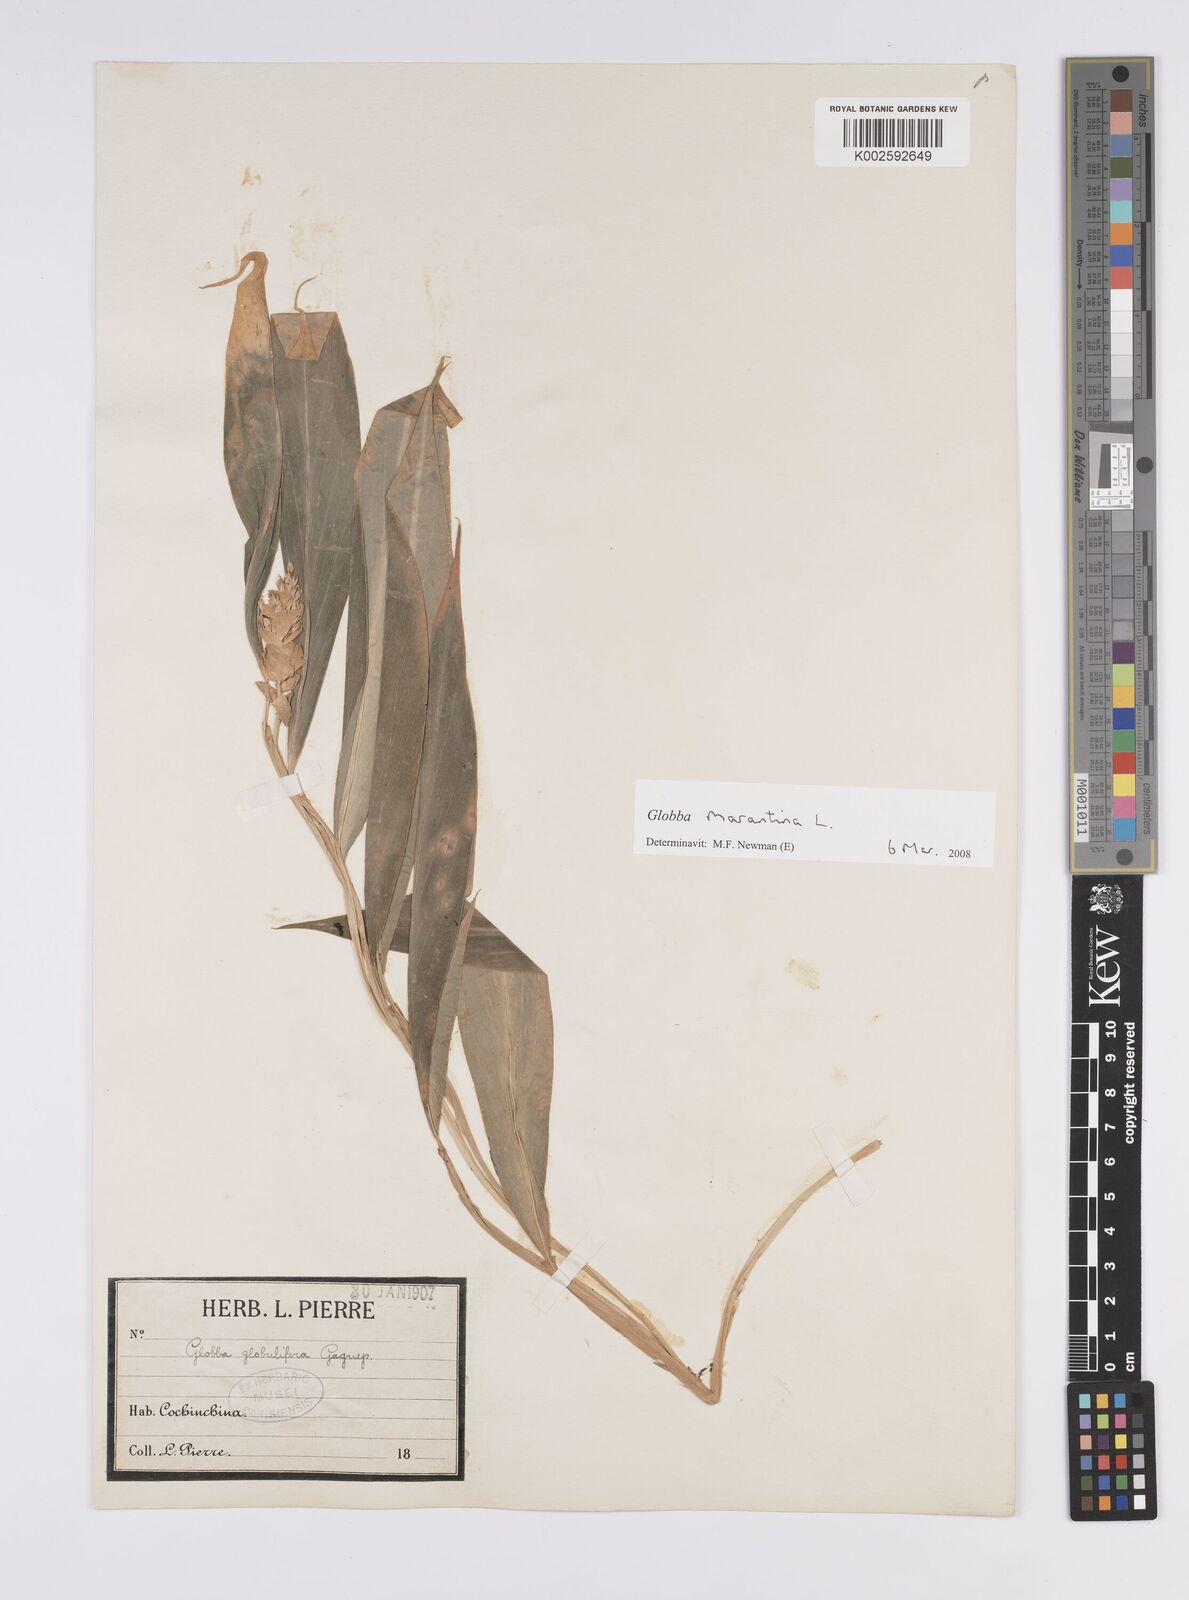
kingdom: Plantae
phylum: Tracheophyta
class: Liliopsida
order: Zingiberales
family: Zingiberaceae
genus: Globba
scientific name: Globba marantina
